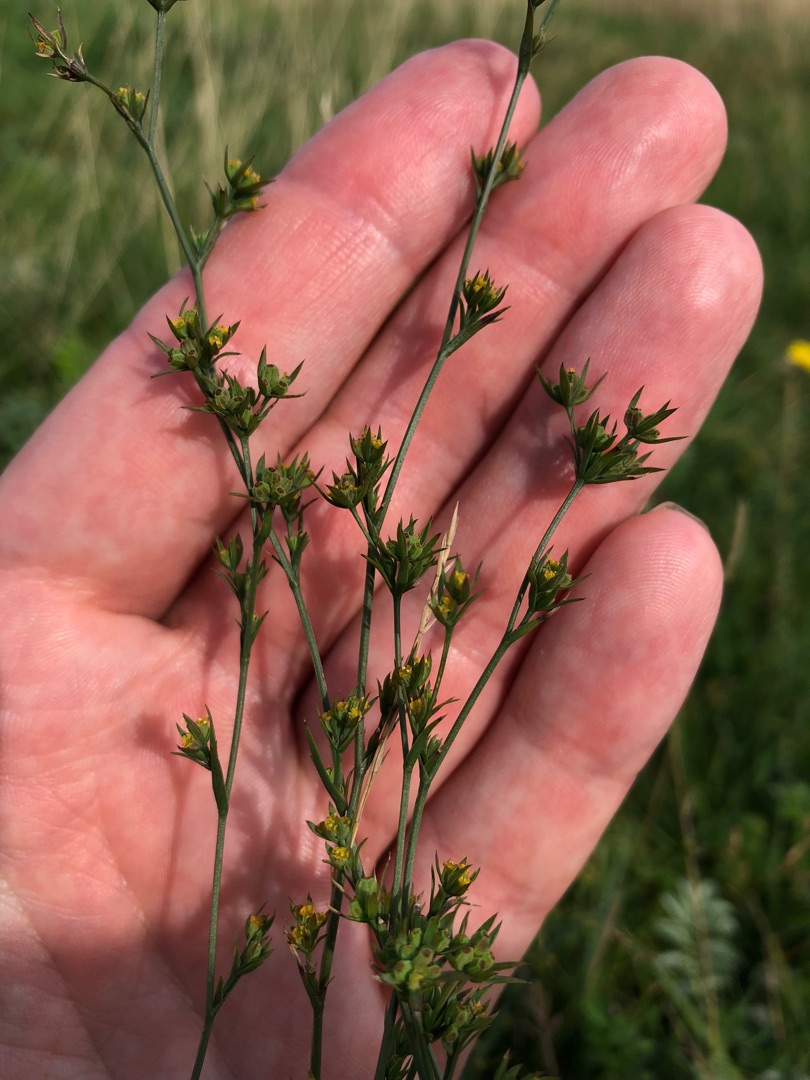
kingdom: Plantae
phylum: Tracheophyta
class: Magnoliopsida
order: Apiales
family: Apiaceae
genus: Bupleurum
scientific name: Bupleurum tenuissimum
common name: Smalbladet hareøre
